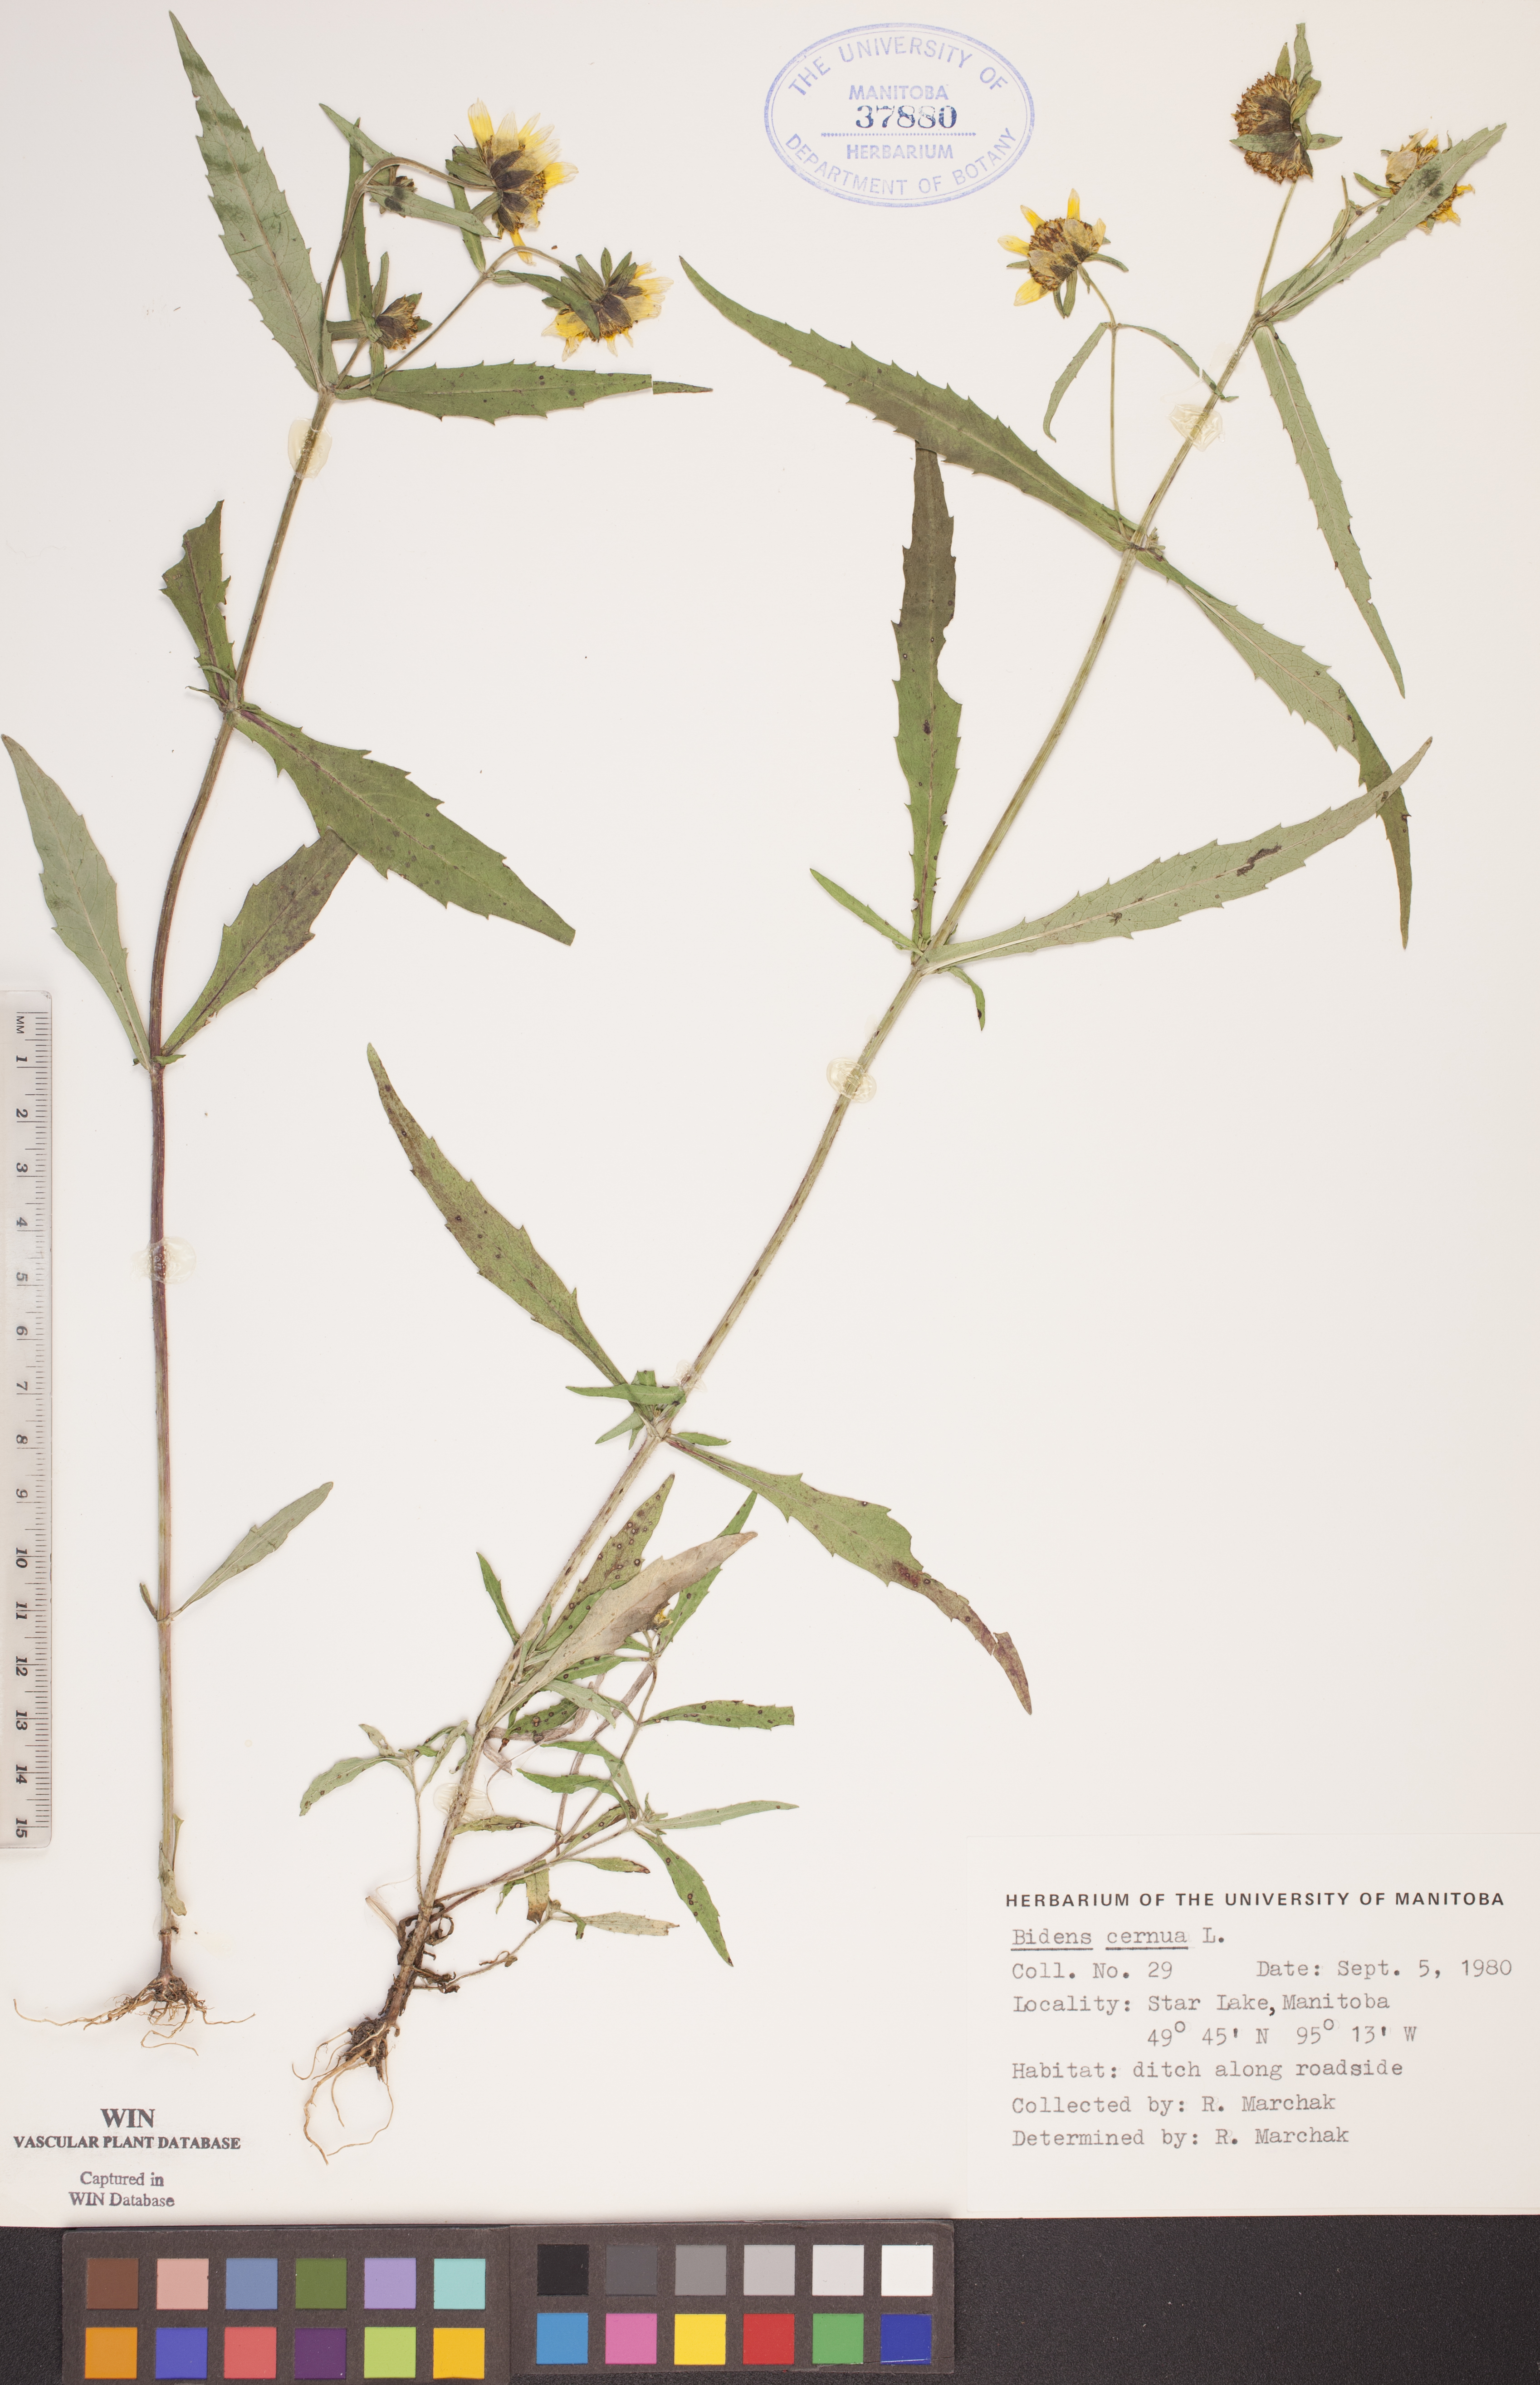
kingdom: Plantae
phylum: Tracheophyta
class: Magnoliopsida
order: Asterales
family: Asteraceae
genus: Bidens
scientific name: Bidens cernua
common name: Nodding bur-marigold
